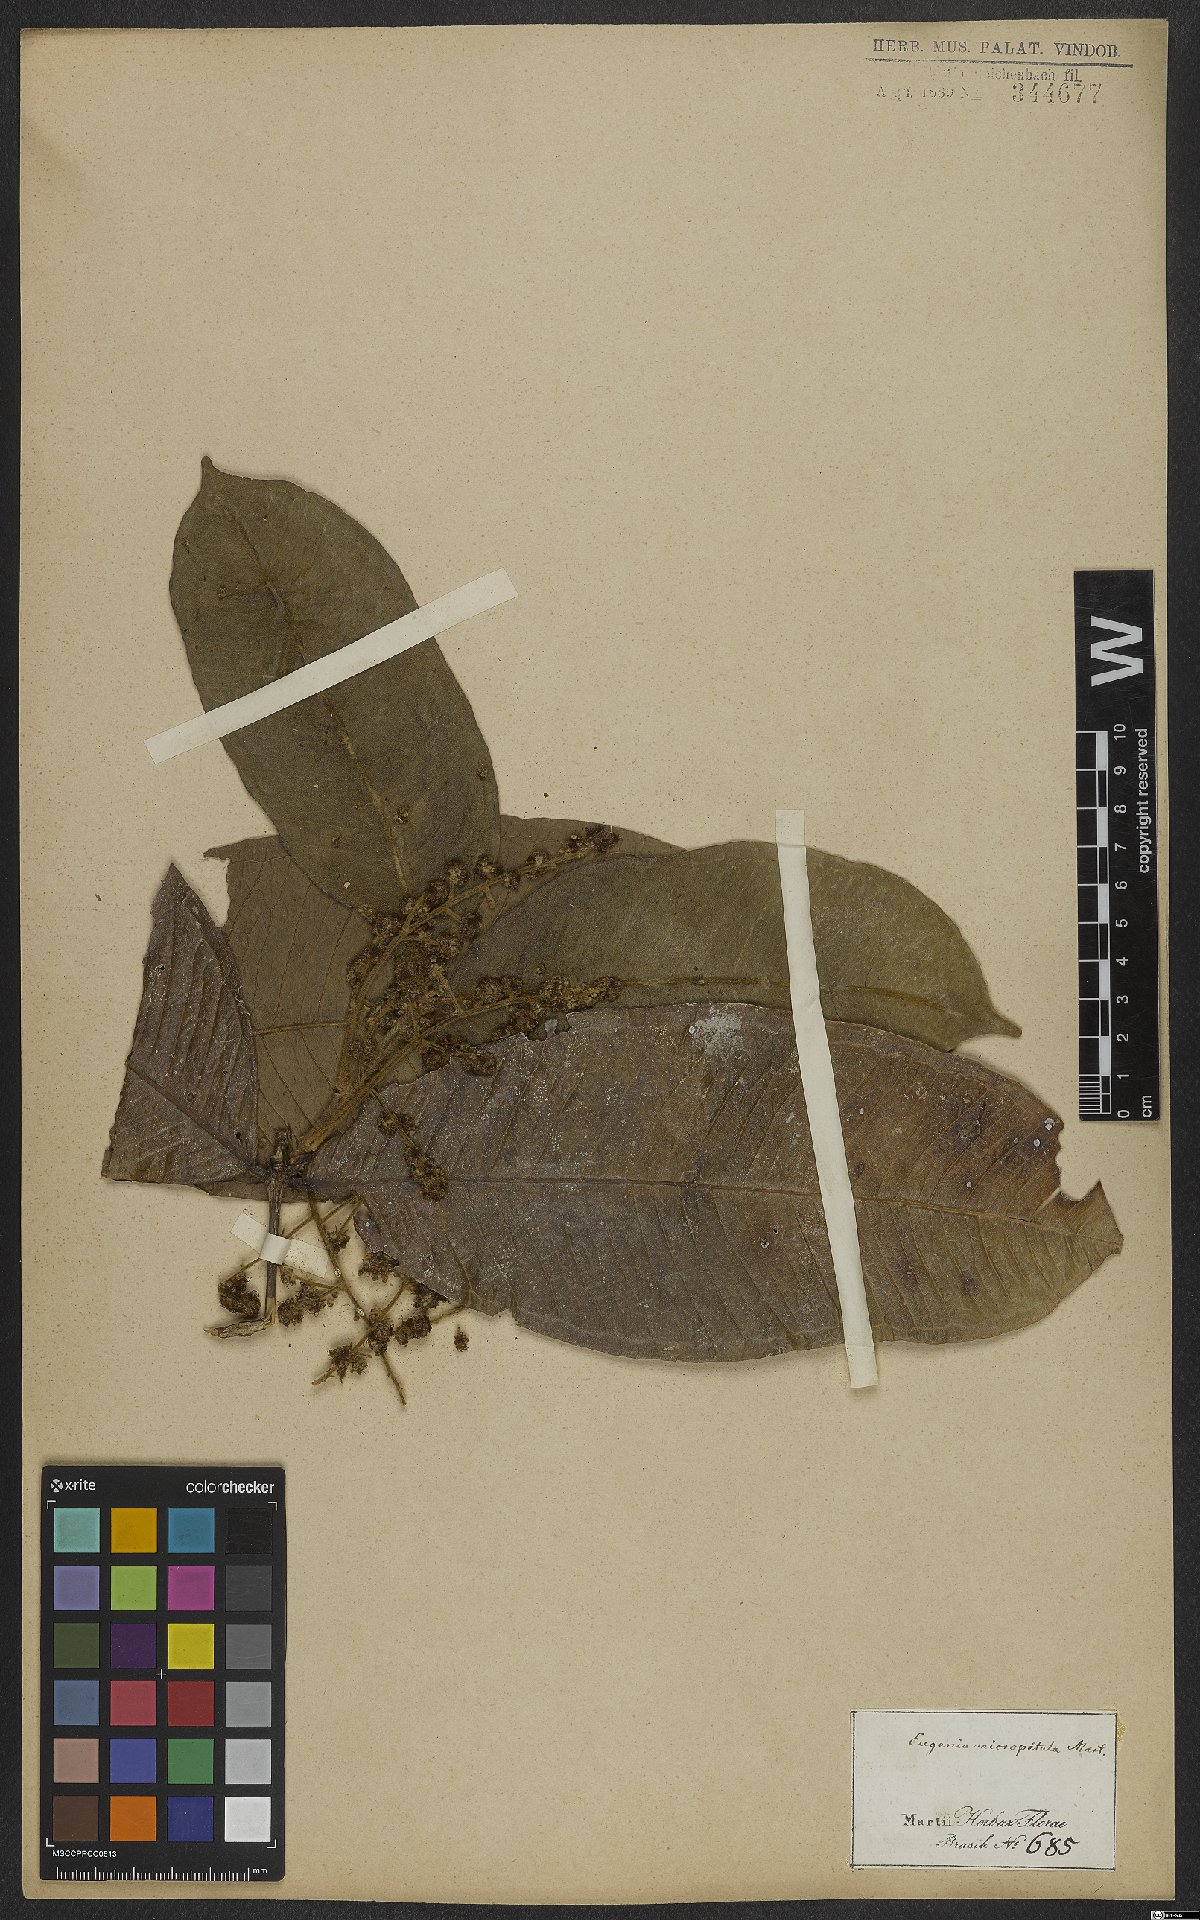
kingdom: Plantae
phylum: Tracheophyta
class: Magnoliopsida
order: Myrtales
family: Myrtaceae
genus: Myrcia
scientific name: Myrcia micropetala
